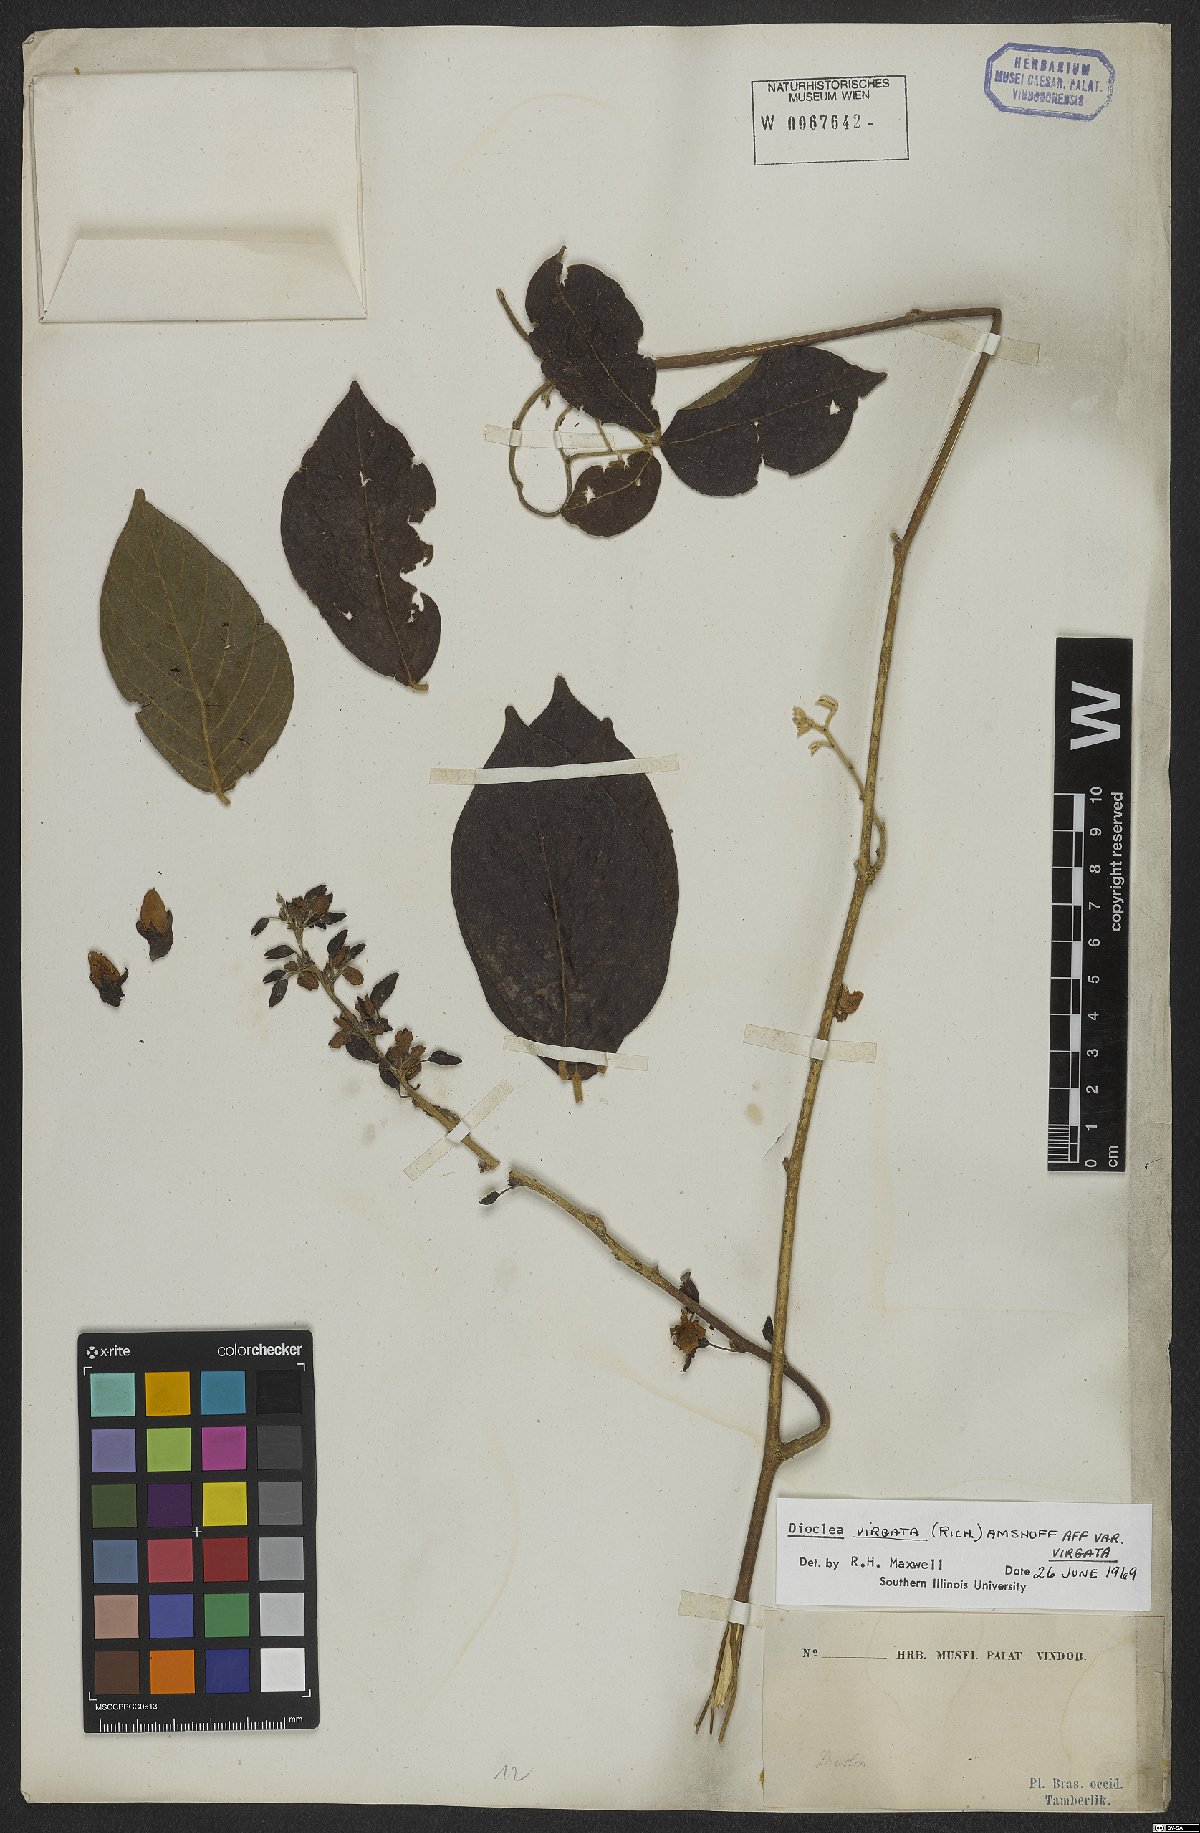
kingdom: Plantae
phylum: Tracheophyta
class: Magnoliopsida
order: Fabales
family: Fabaceae
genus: Dioclea
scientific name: Dioclea virgata
